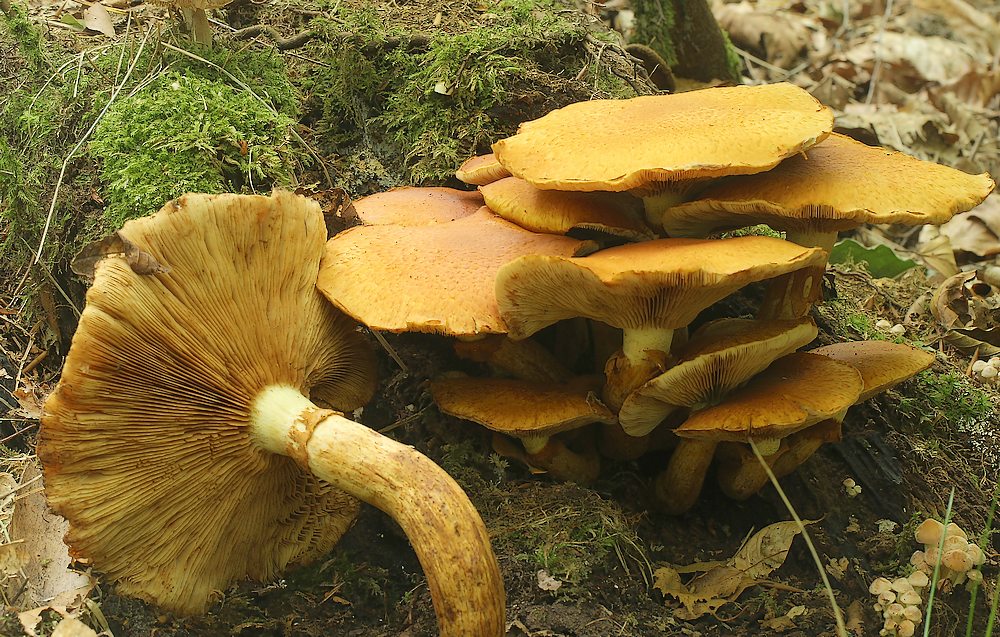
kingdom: Fungi
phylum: Basidiomycota
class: Agaricomycetes
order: Agaricales
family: Hymenogastraceae
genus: Gymnopilus
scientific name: Gymnopilus spectabilis
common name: fibret flammehat
